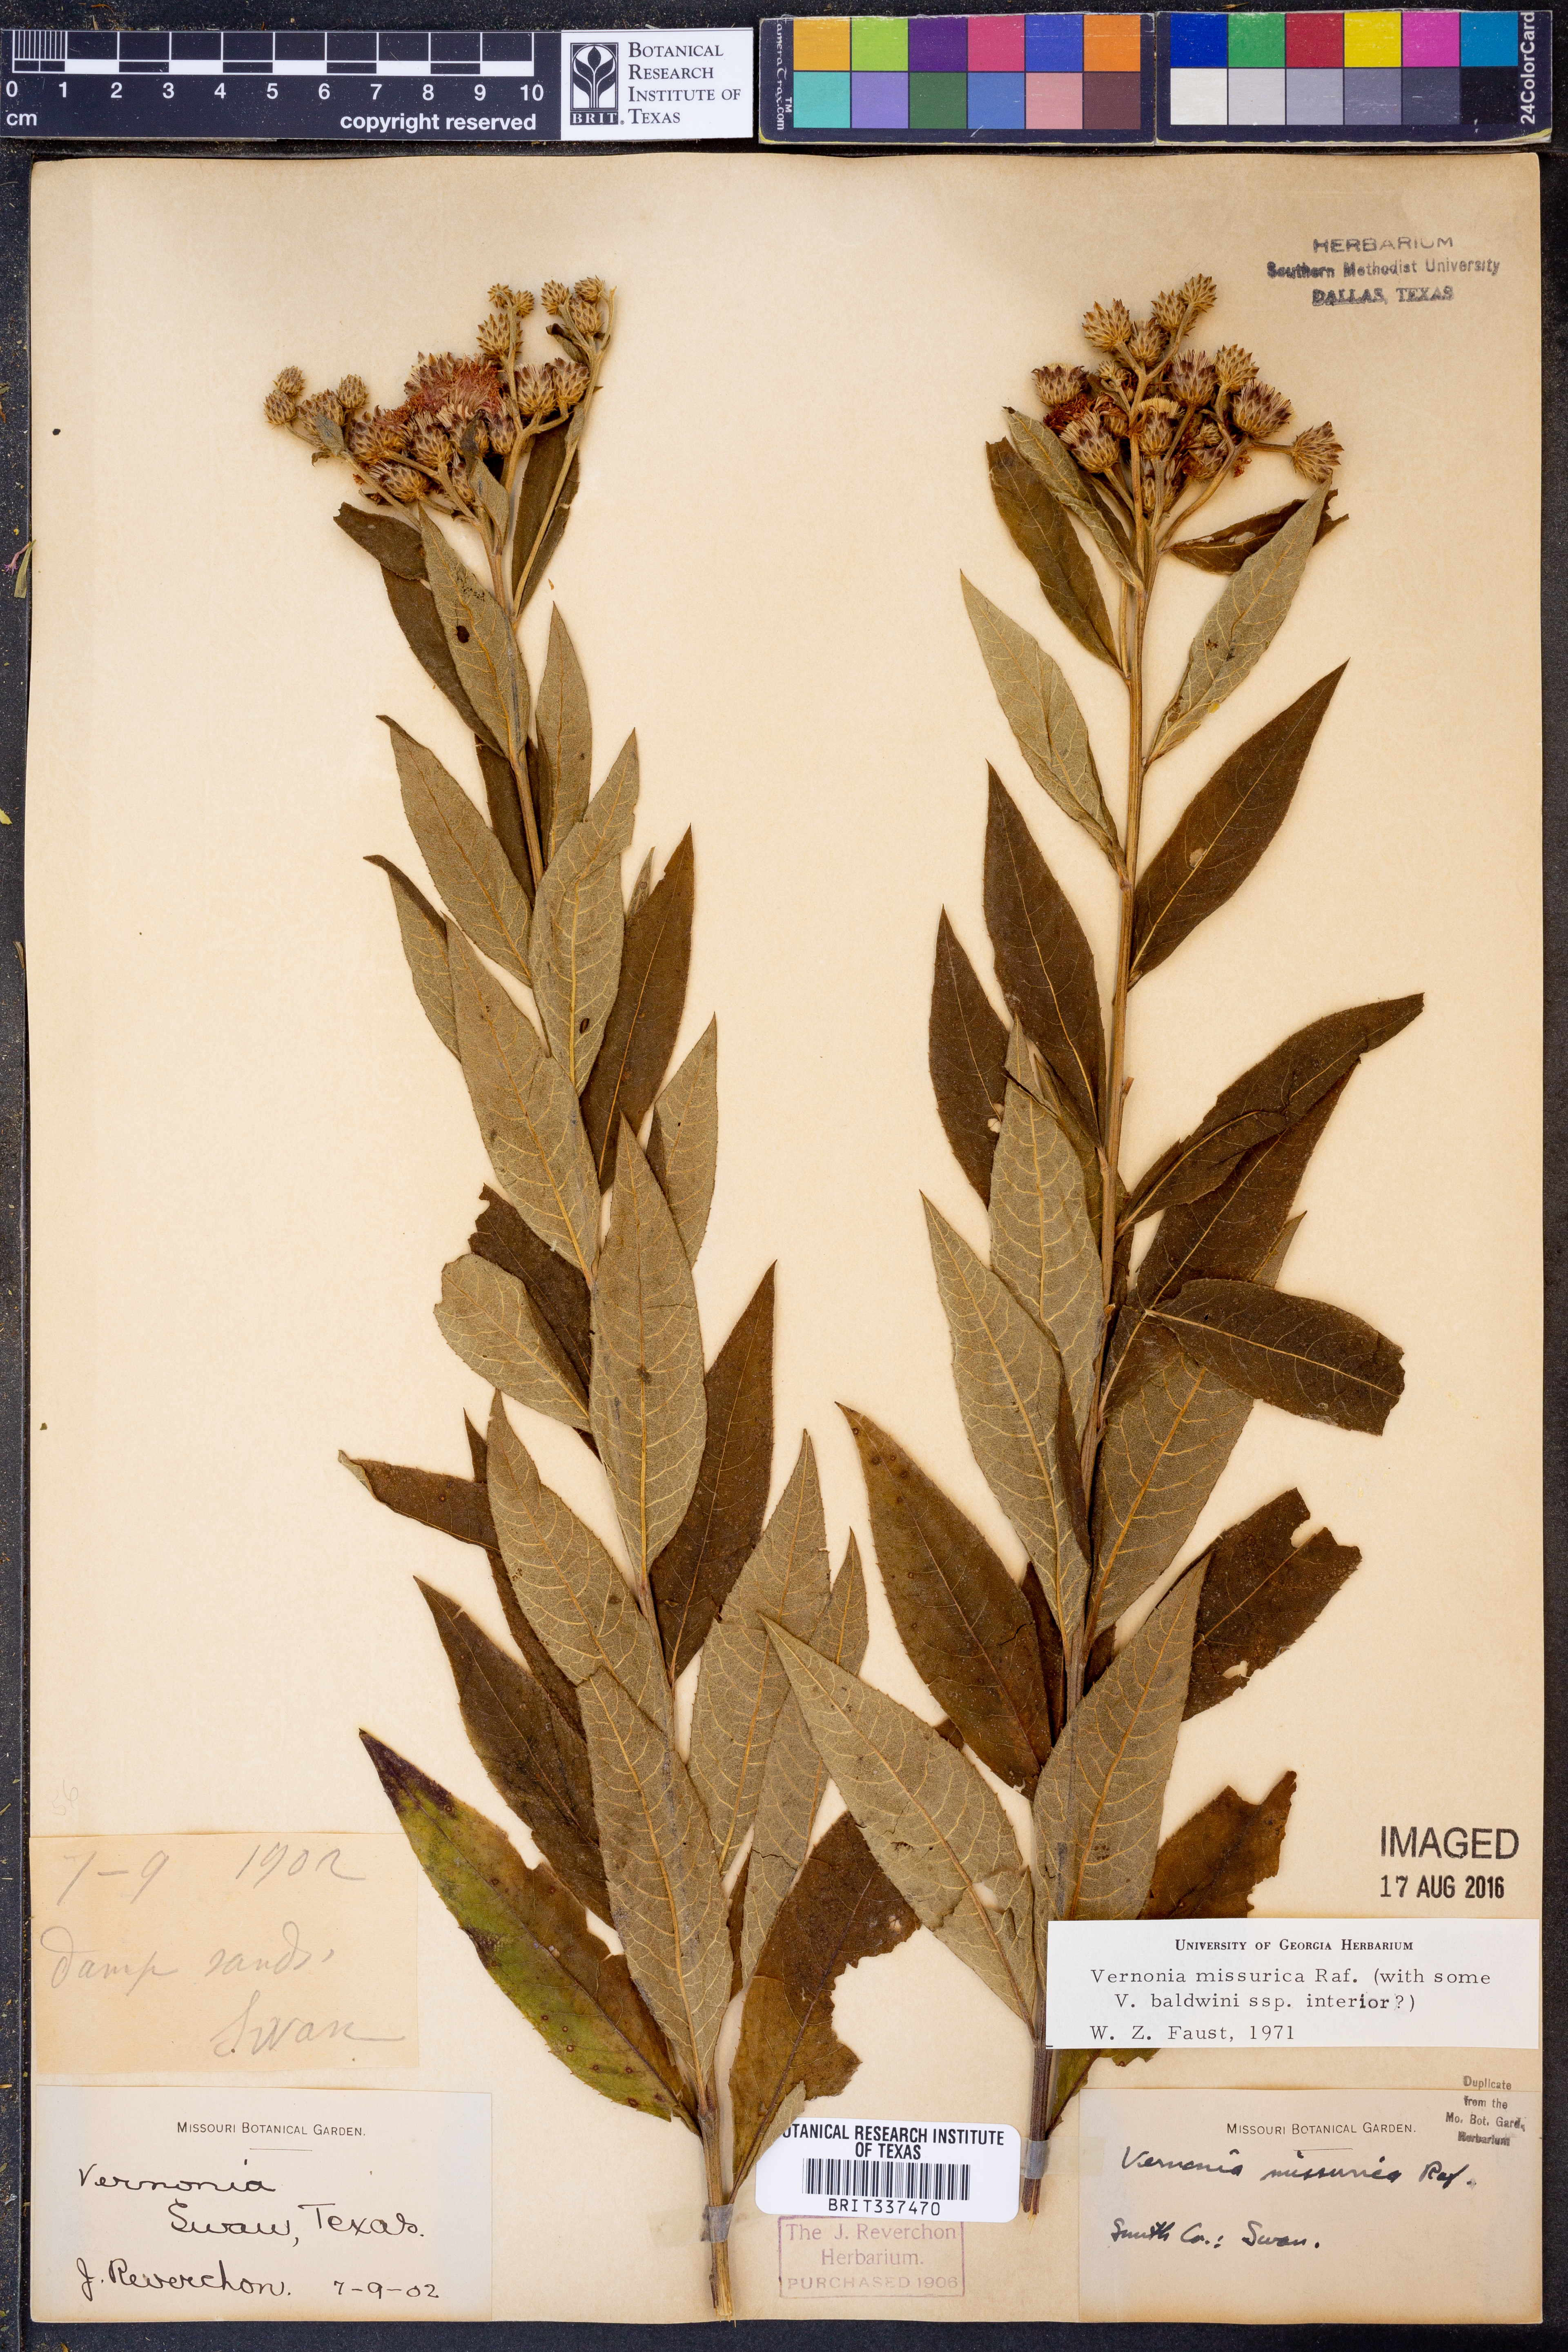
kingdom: Plantae
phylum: Tracheophyta
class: Magnoliopsida
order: Asterales
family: Asteraceae
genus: Vernonia
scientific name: Vernonia missurica
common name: Missouri ironweed
